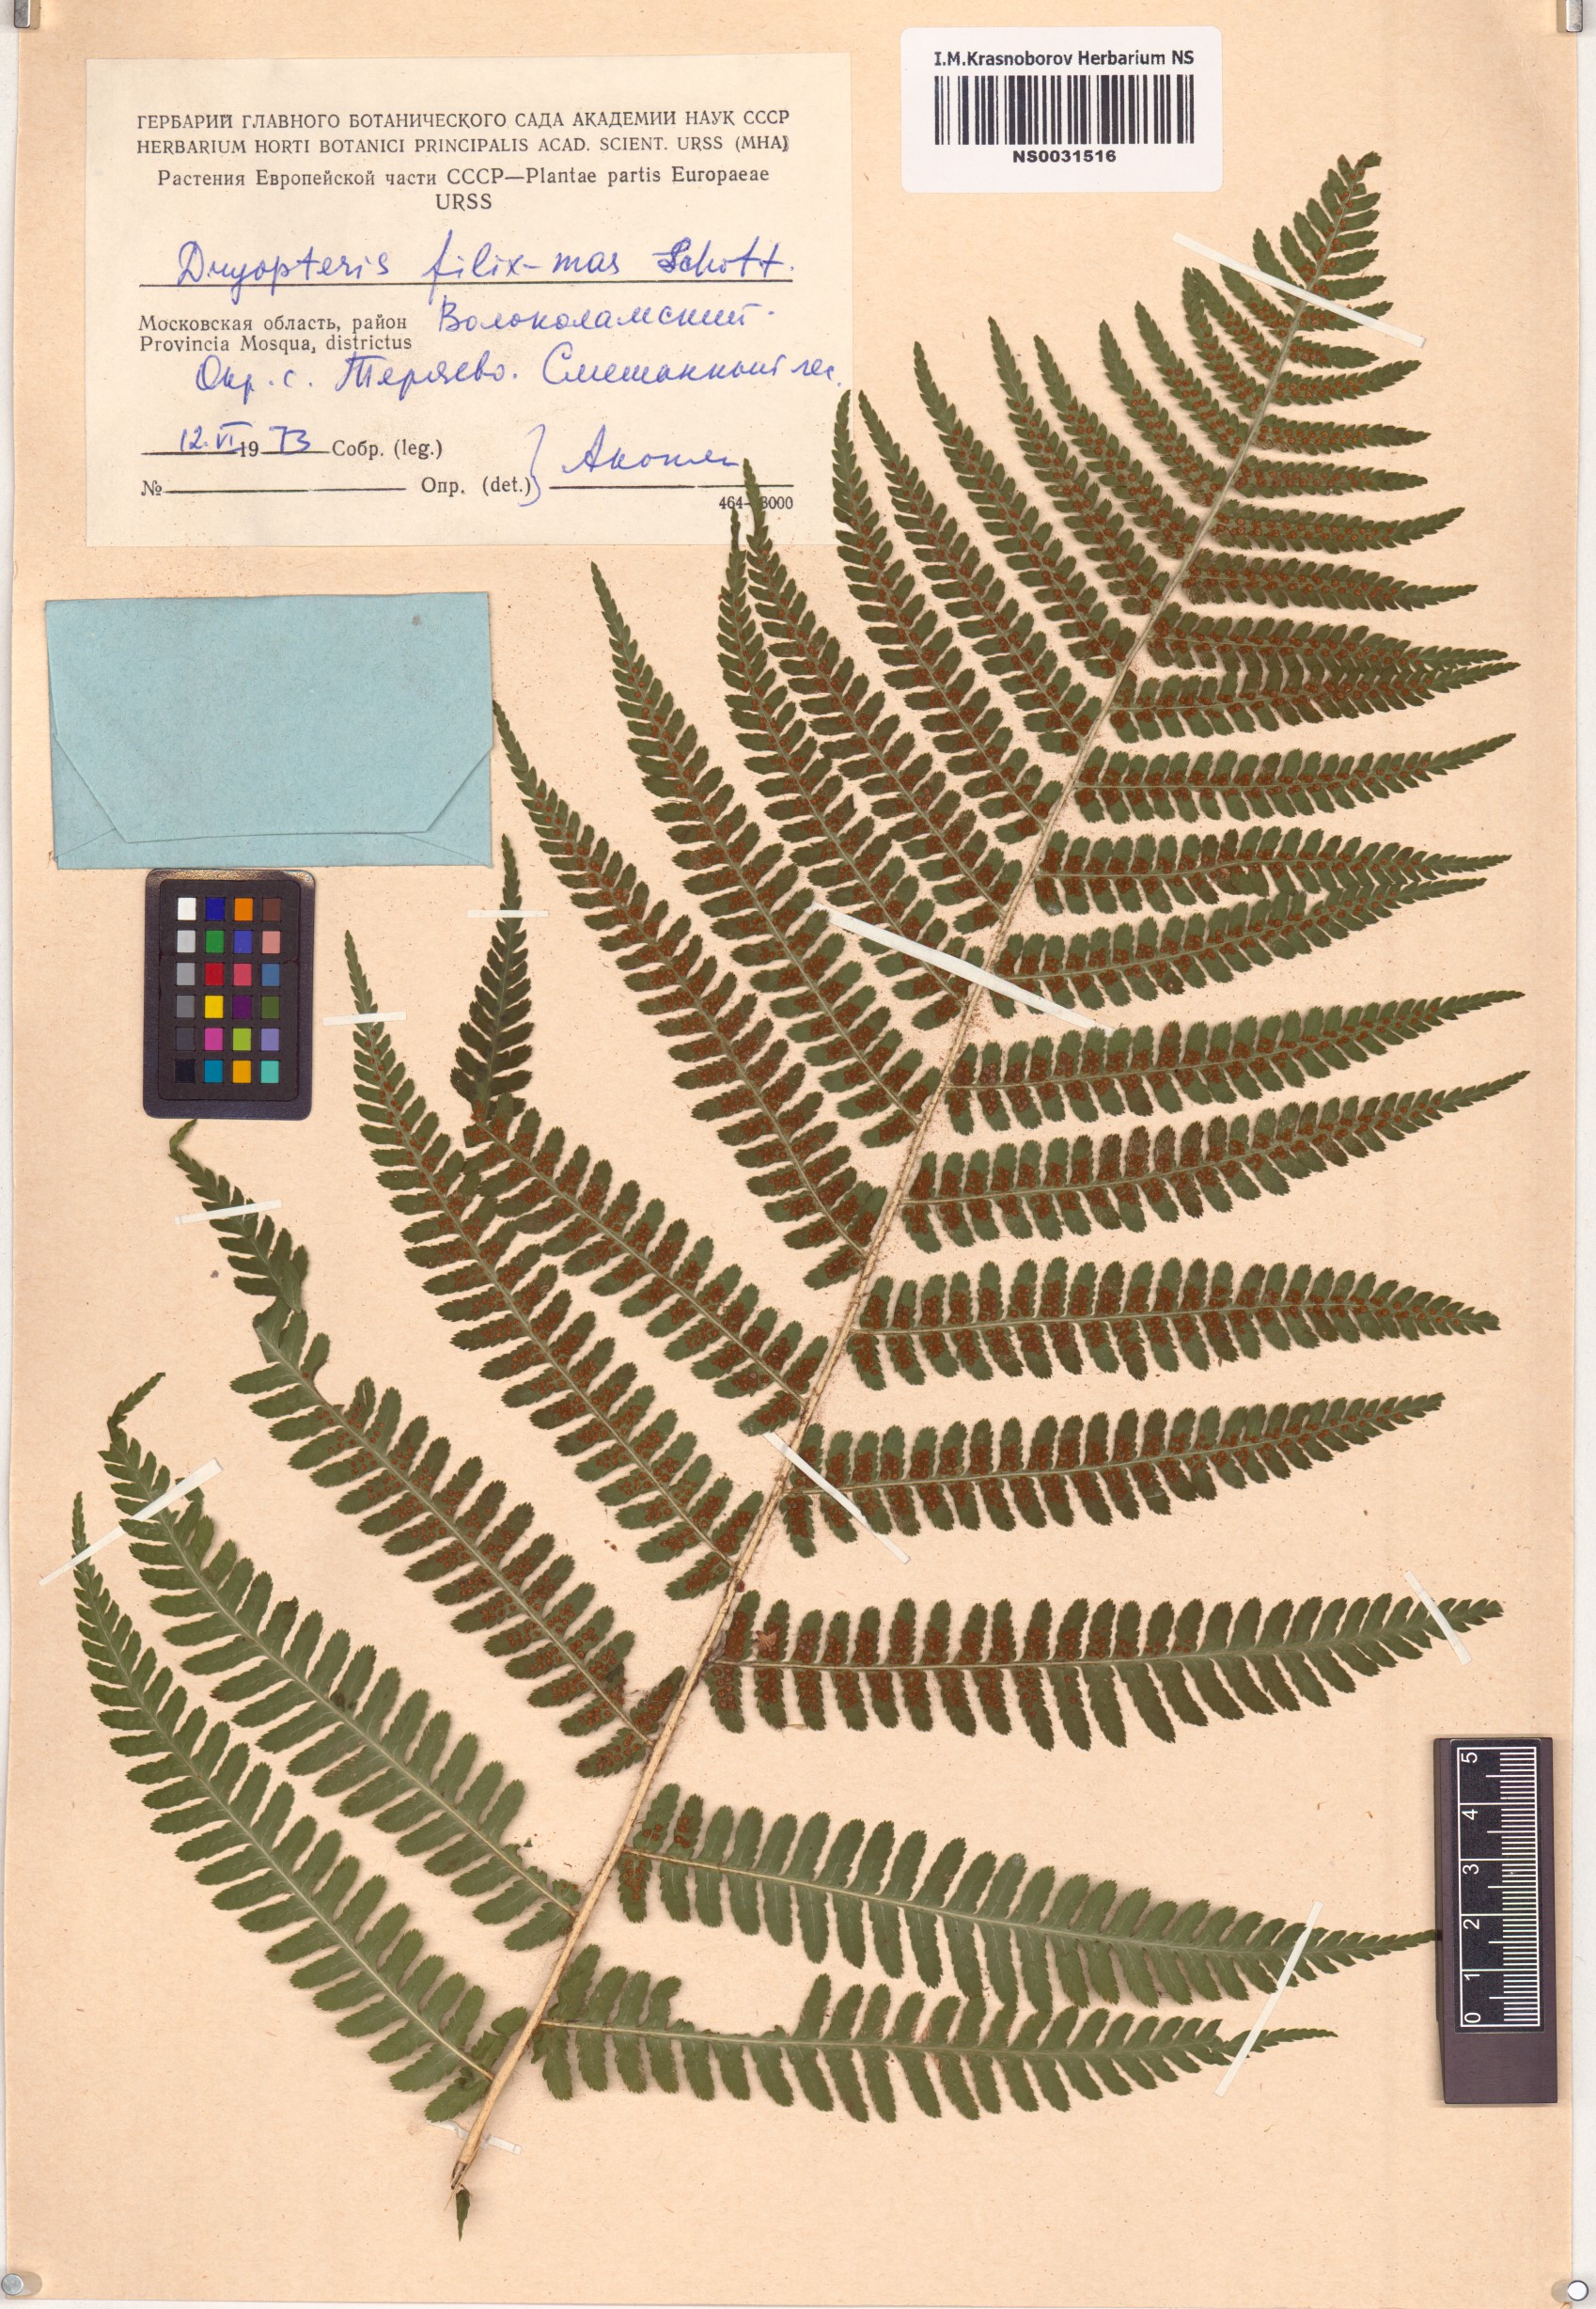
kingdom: Plantae
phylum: Tracheophyta
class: Polypodiopsida
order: Polypodiales
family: Dryopteridaceae
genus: Dryopteris
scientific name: Dryopteris filix-mas
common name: Male fern
